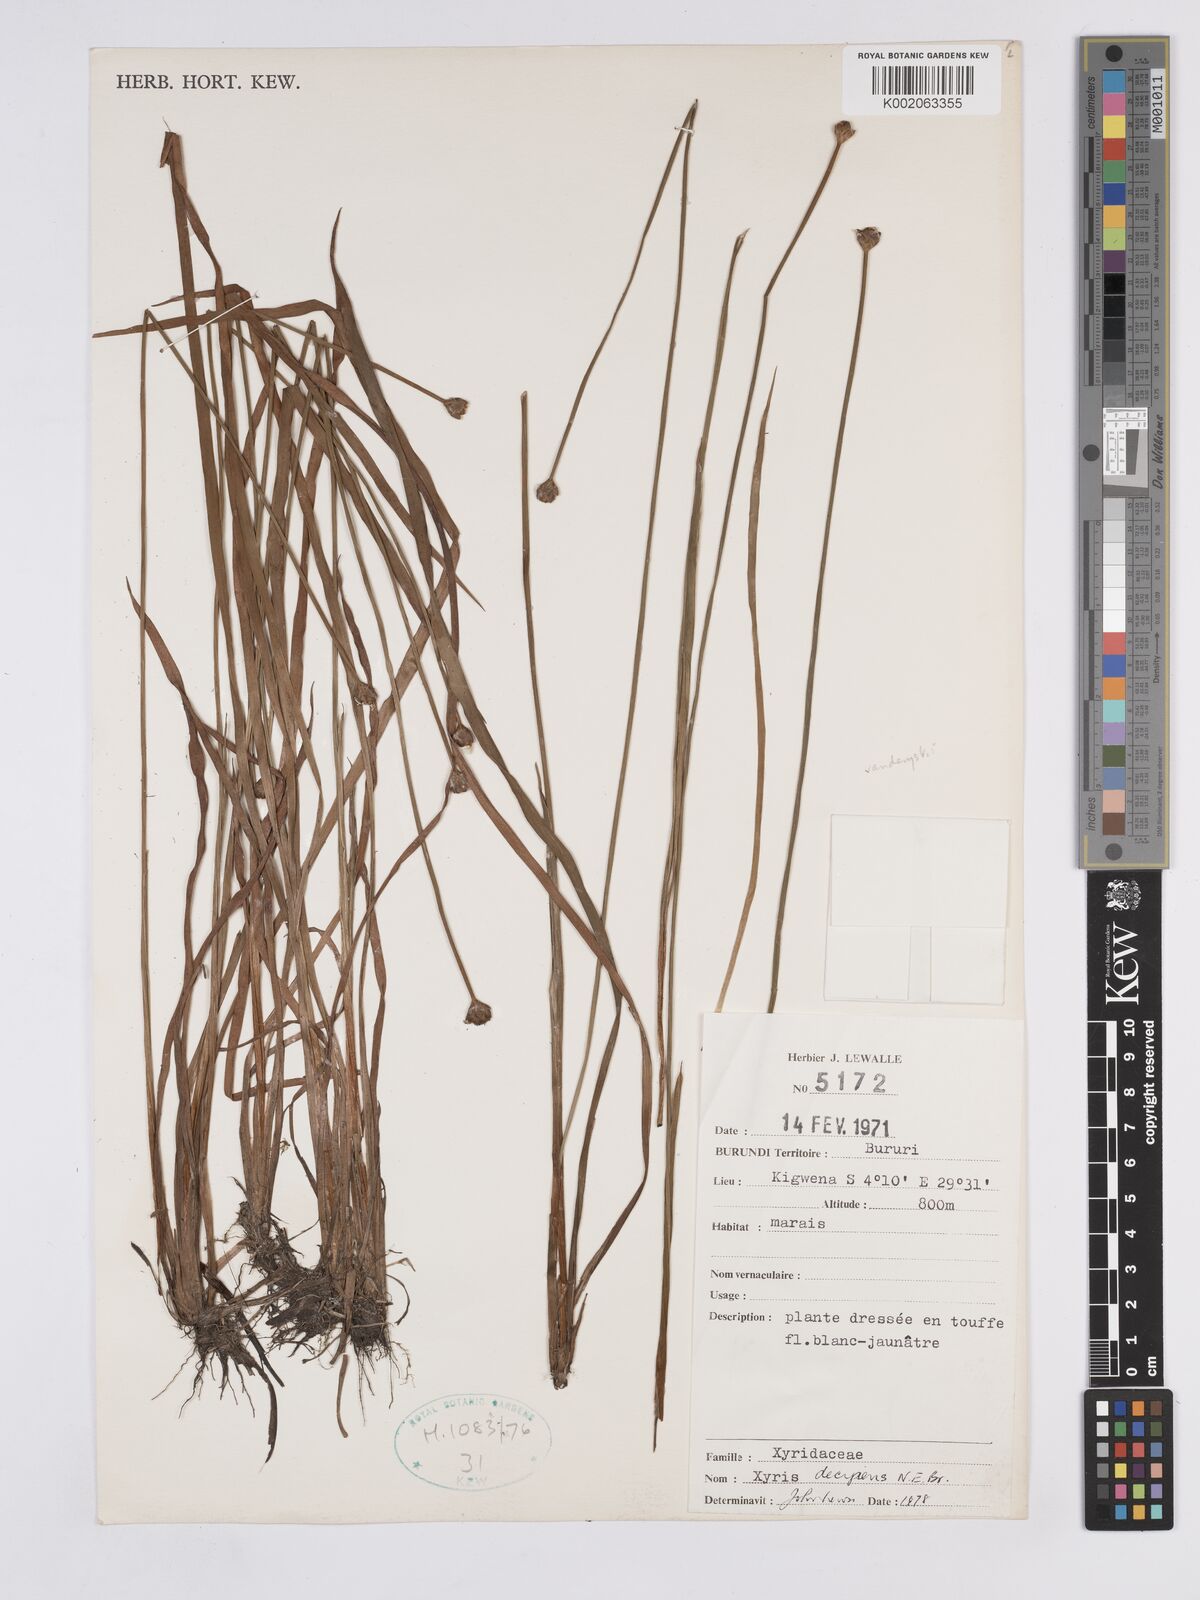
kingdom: Plantae
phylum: Tracheophyta
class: Liliopsida
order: Poales
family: Xyridaceae
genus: Xyris
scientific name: Xyris decipiens
